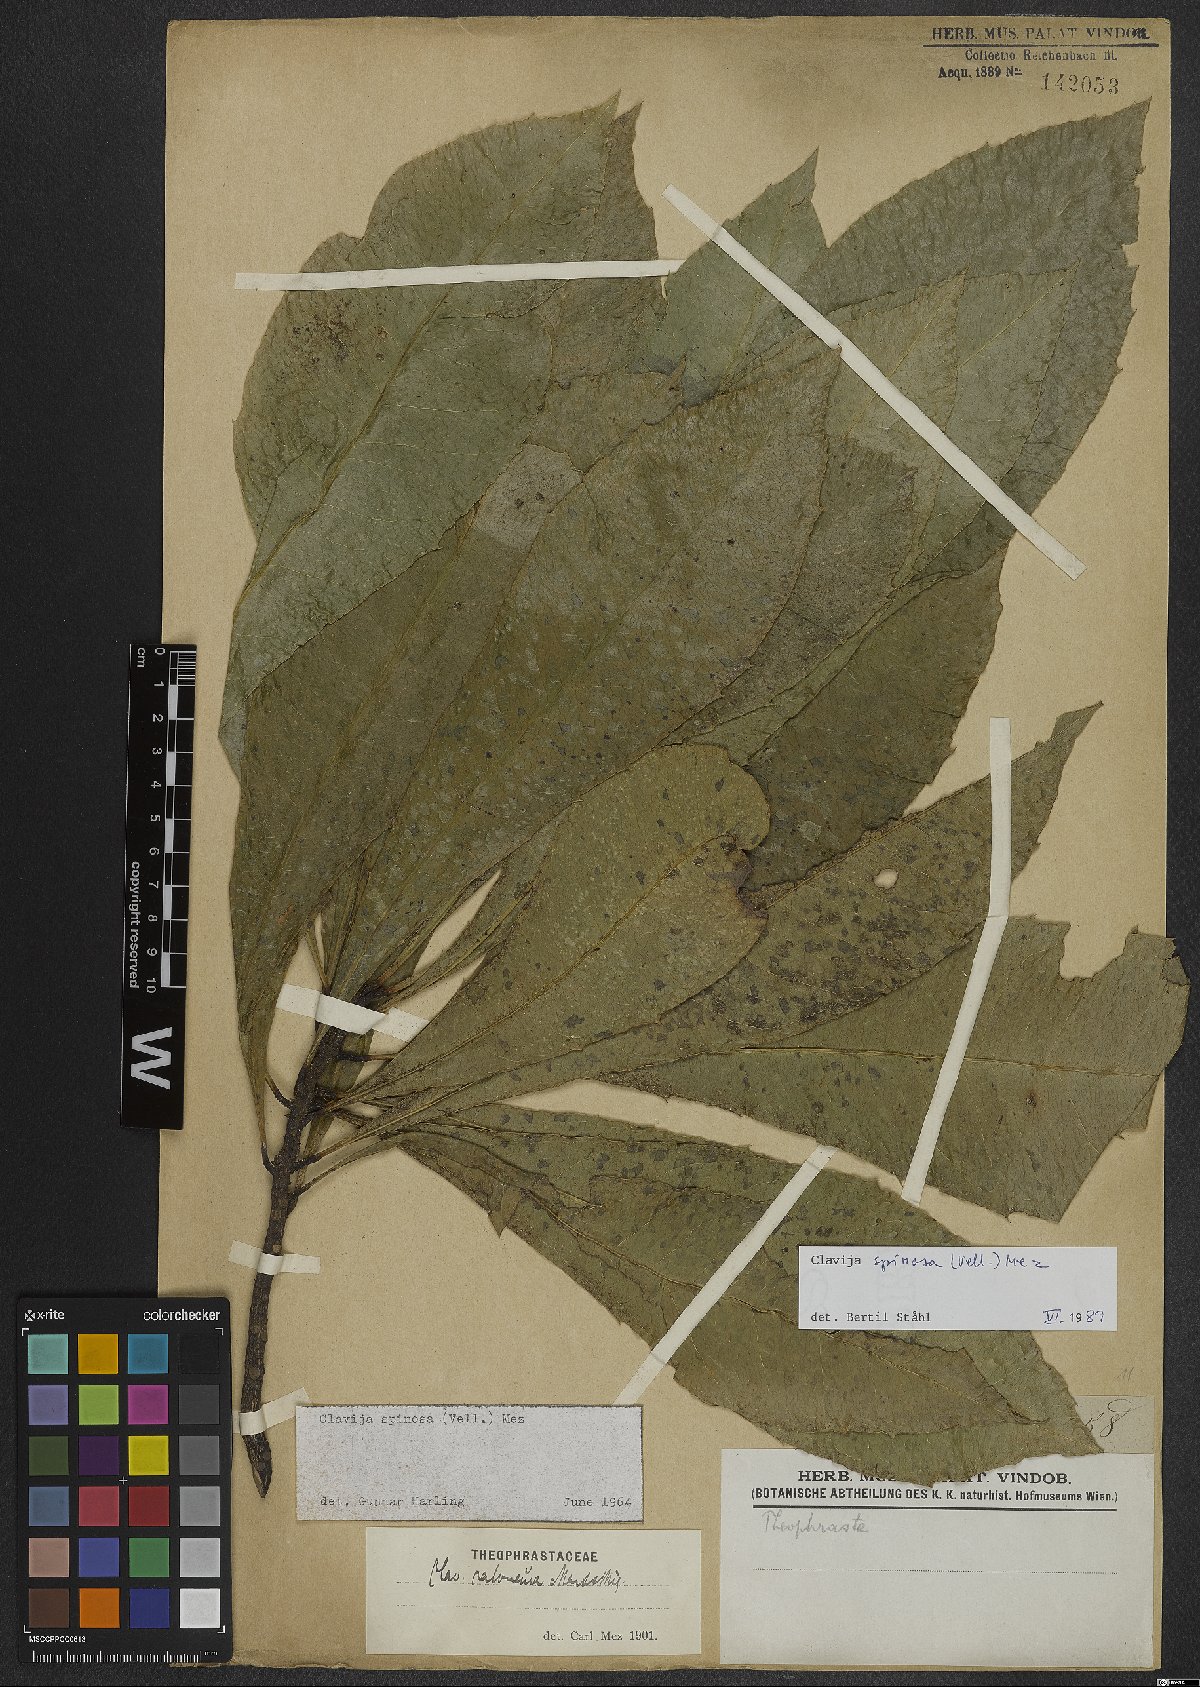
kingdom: Plantae
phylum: Tracheophyta
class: Magnoliopsida
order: Ericales
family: Primulaceae
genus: Clavija
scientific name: Clavija spinosa
